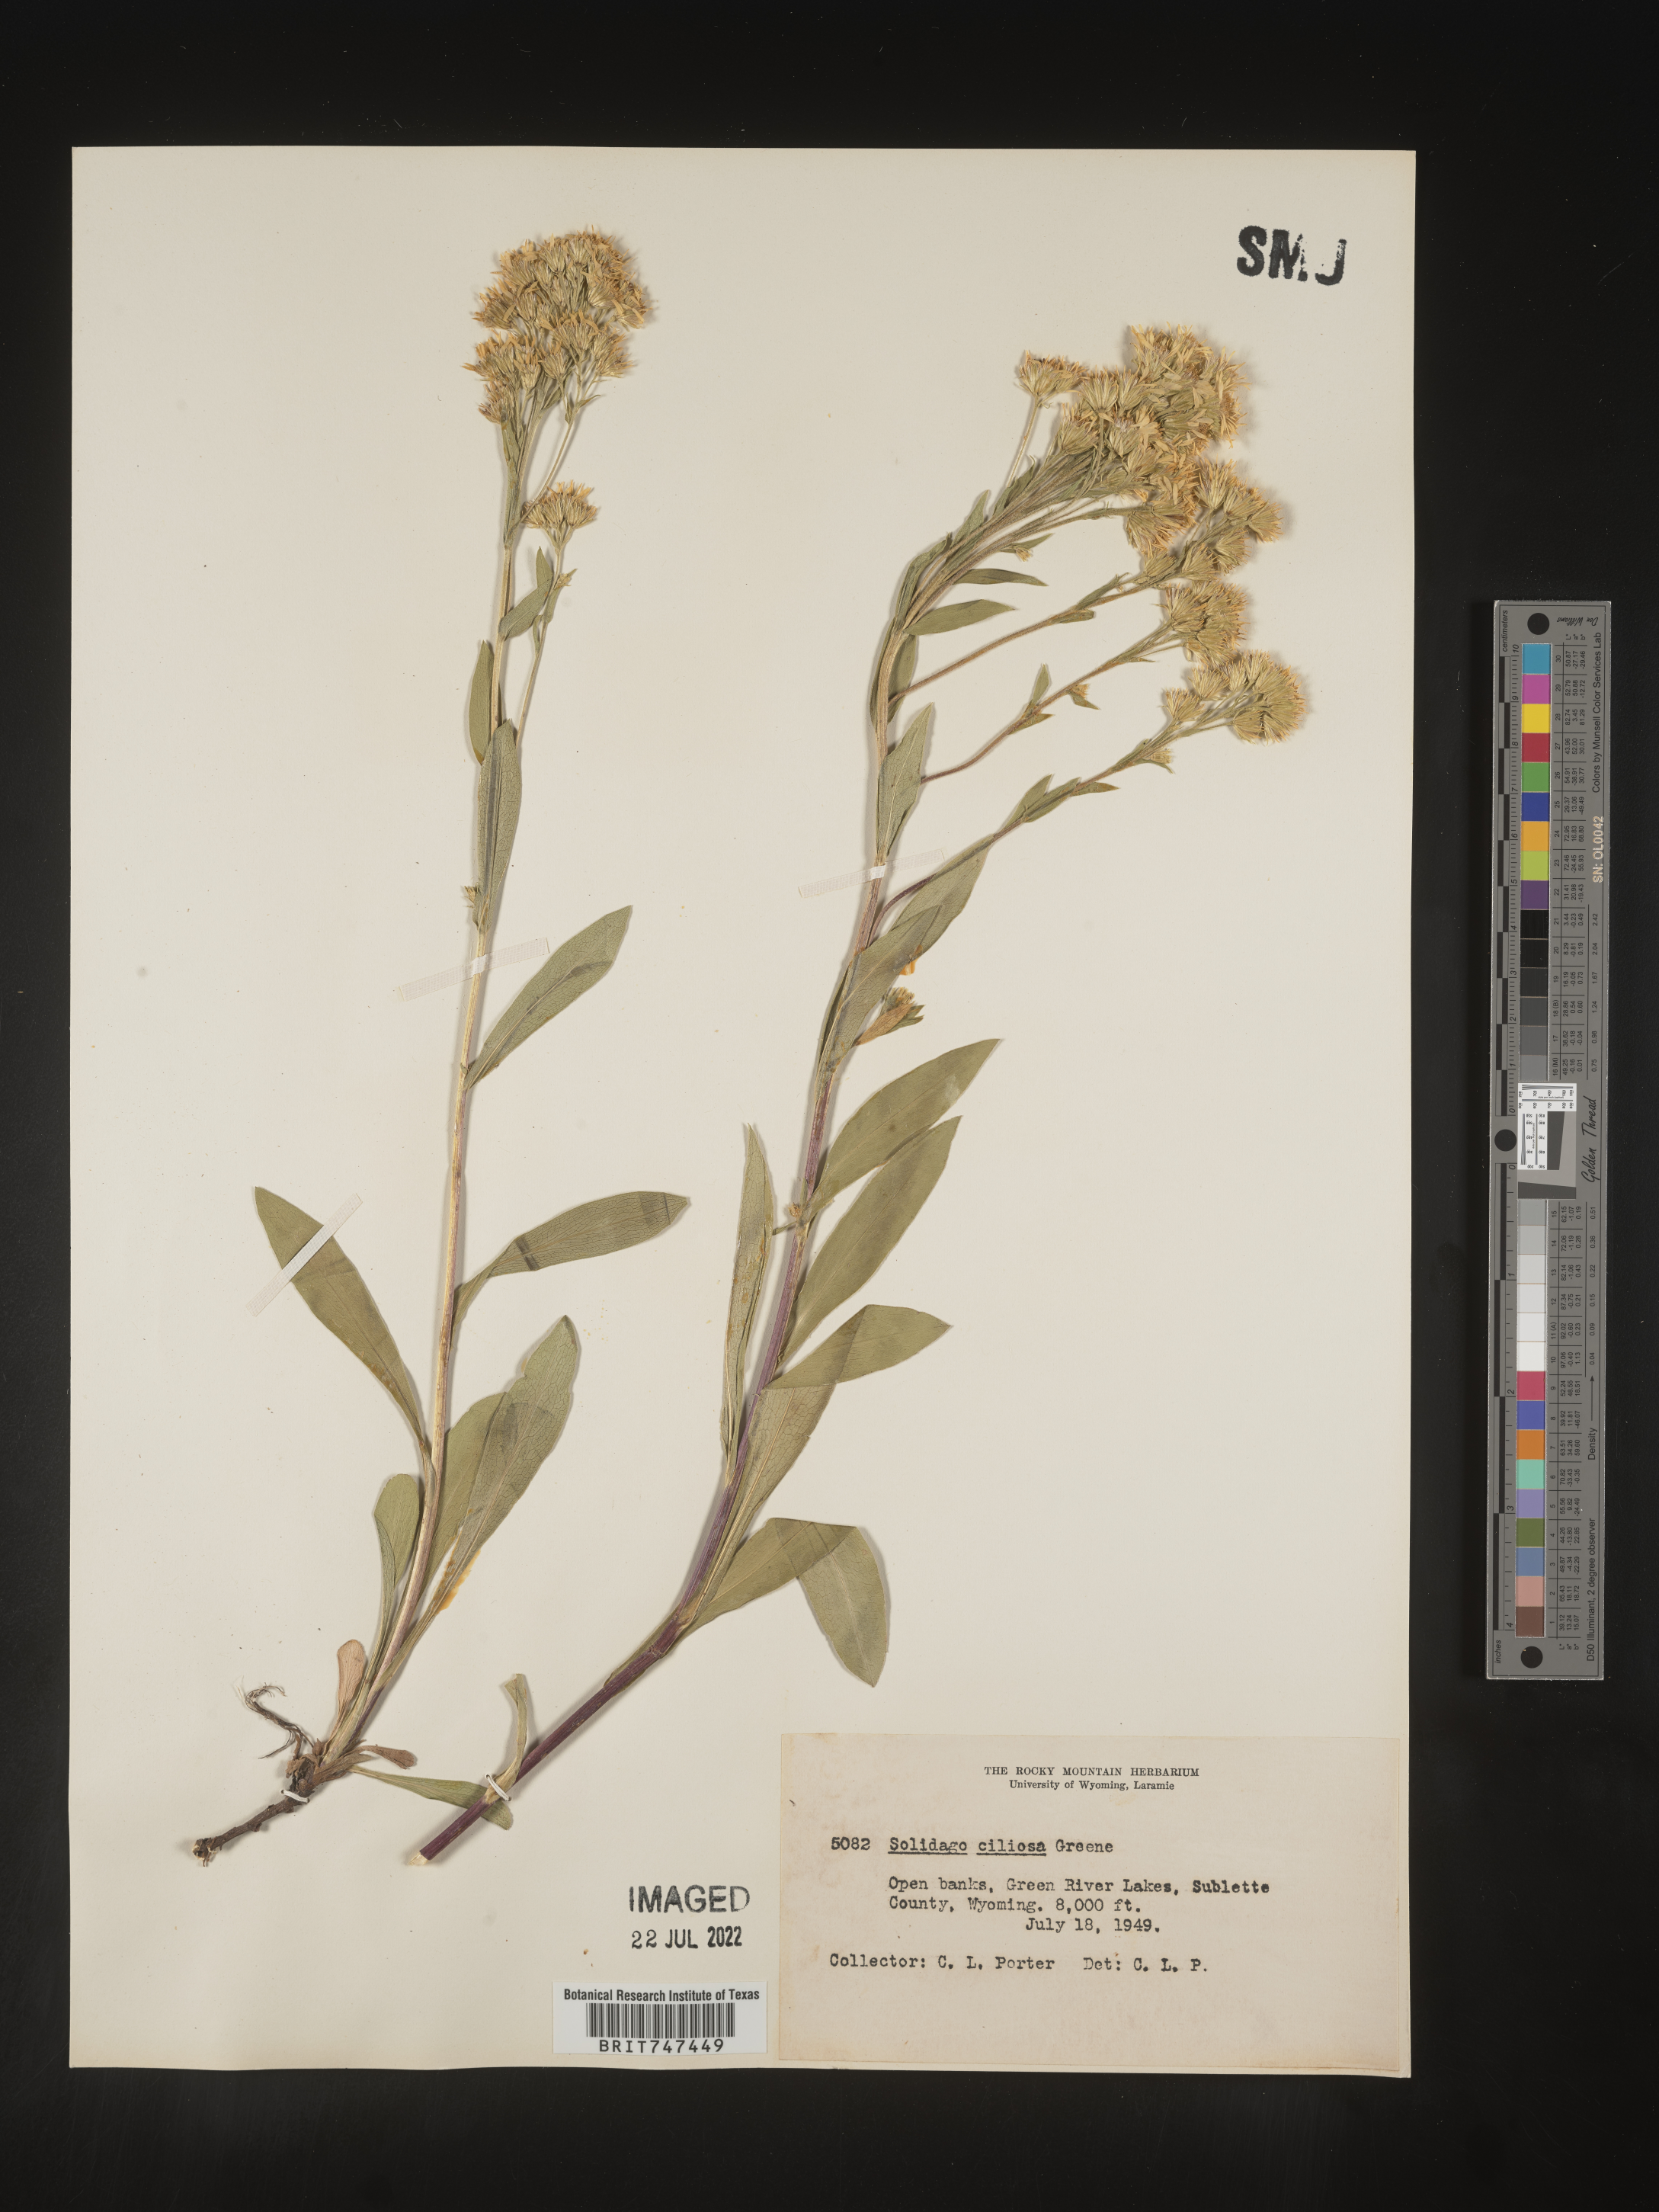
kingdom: Plantae
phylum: Tracheophyta
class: Magnoliopsida
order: Asterales
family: Asteraceae
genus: Solidago
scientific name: Solidago multiradiata
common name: Northern goldenrod
